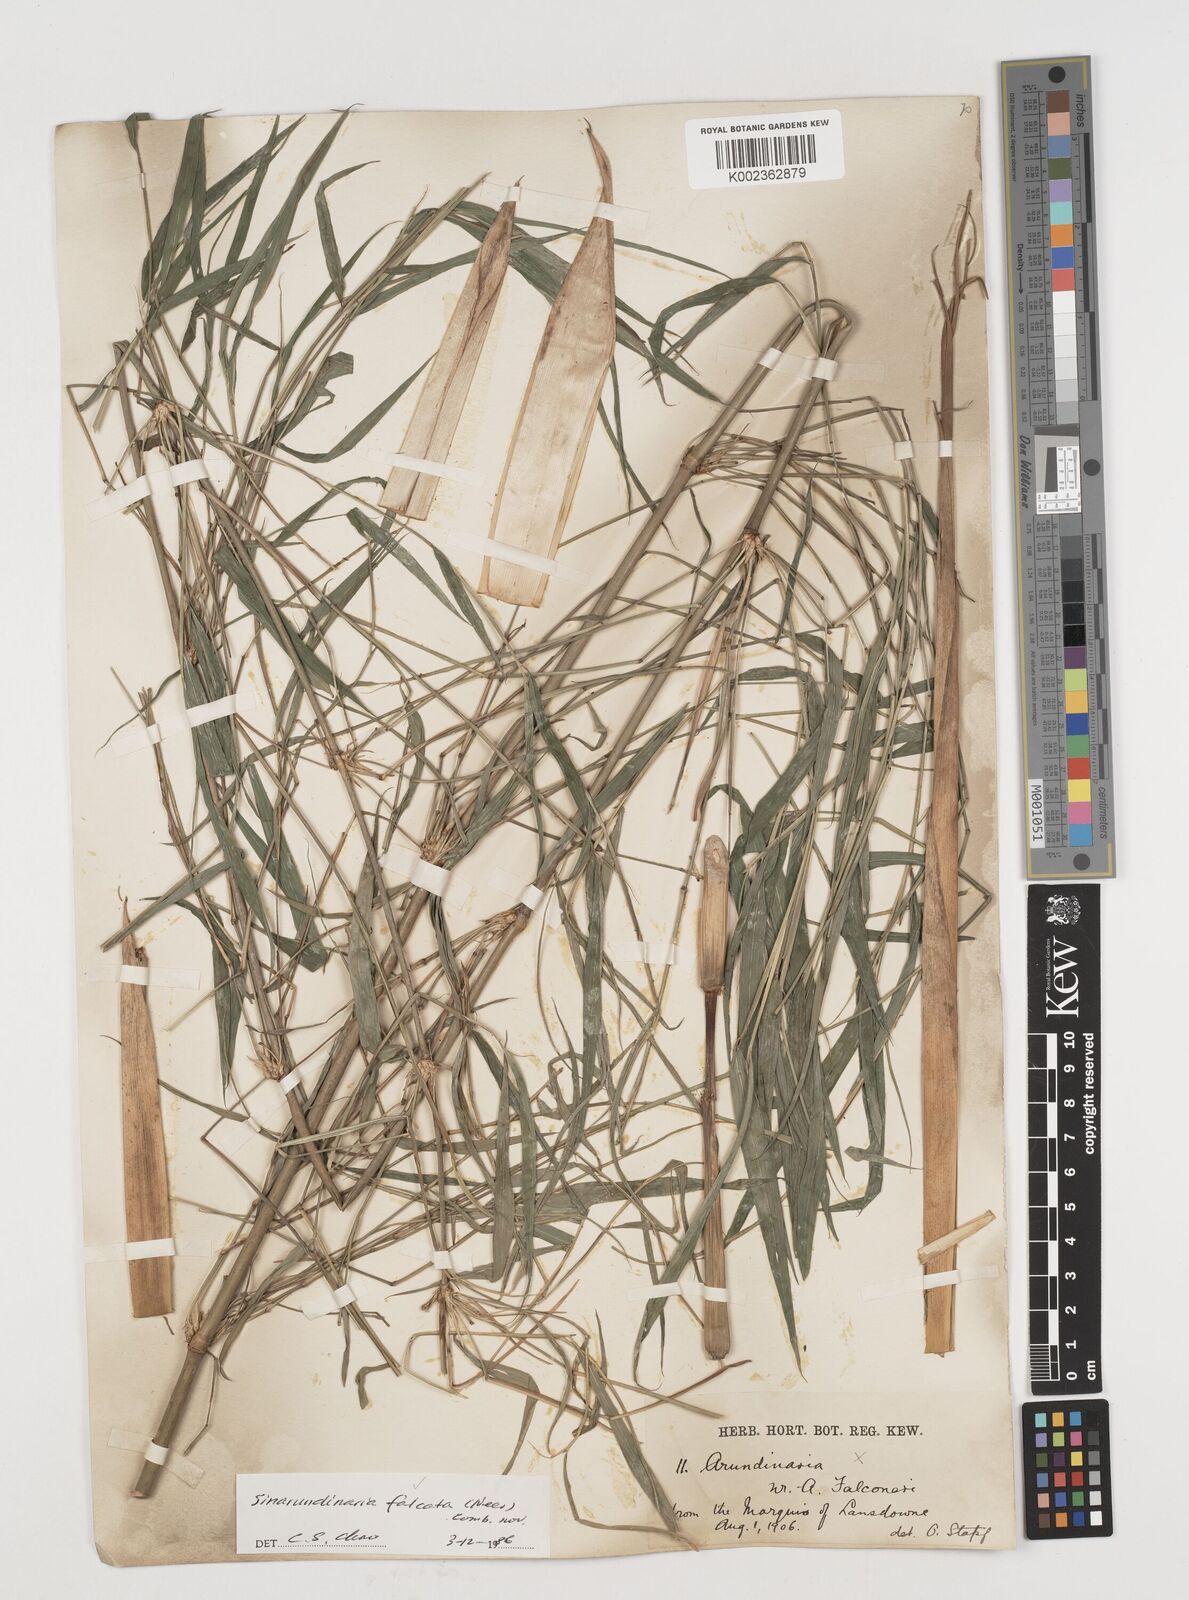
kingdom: Plantae
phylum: Tracheophyta
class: Liliopsida
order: Poales
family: Poaceae
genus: Drepanostachyum
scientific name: Drepanostachyum falcatum
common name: Himalayan bamboo
